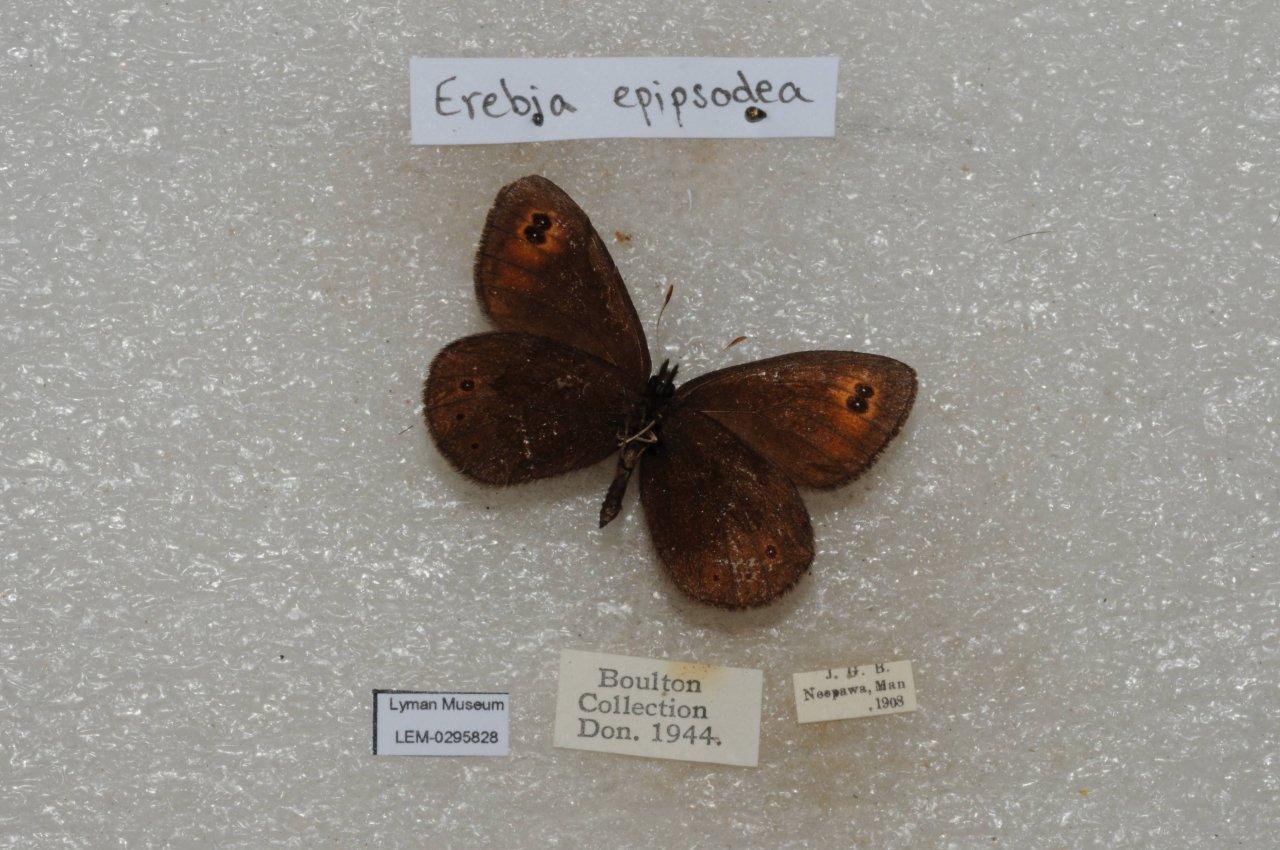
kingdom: Animalia
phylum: Arthropoda
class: Insecta
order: Lepidoptera
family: Nymphalidae
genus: Erebia
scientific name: Erebia epipsodea
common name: Common Alpine
